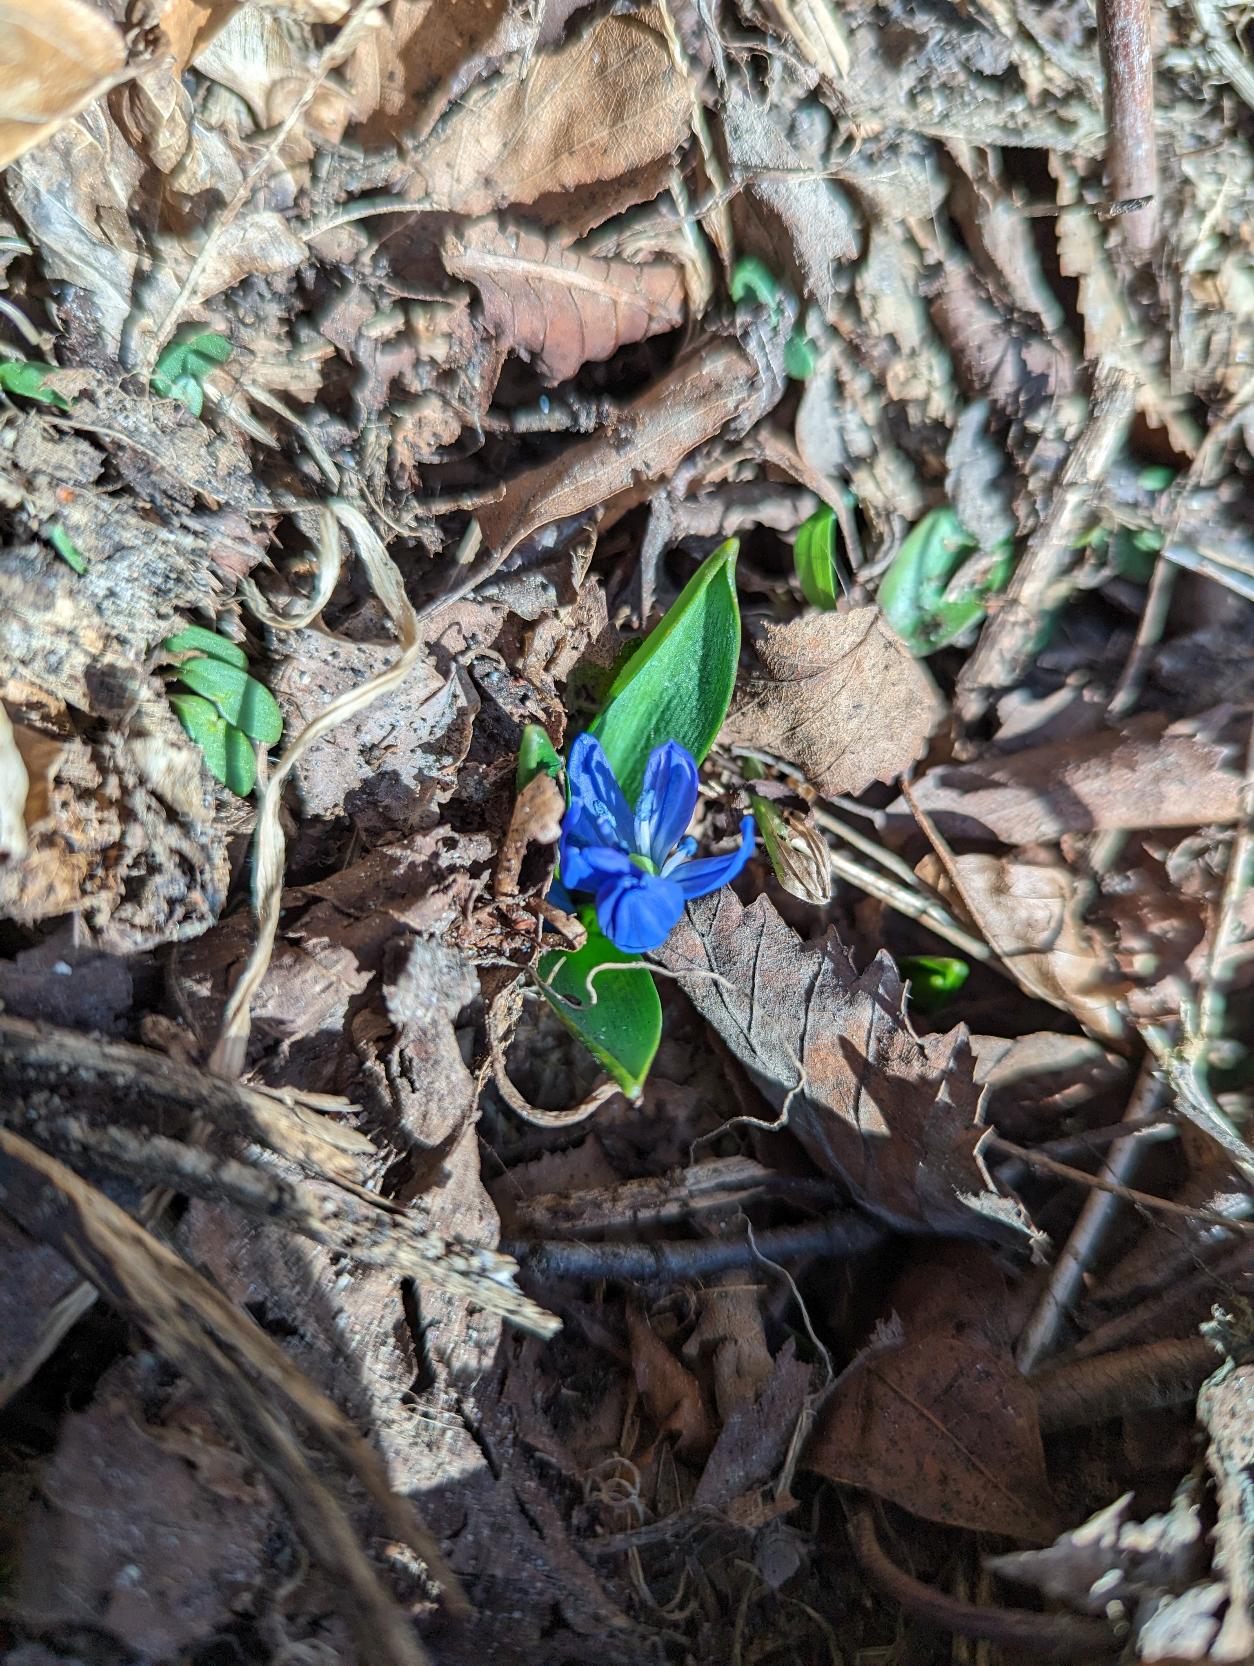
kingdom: Plantae
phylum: Tracheophyta
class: Liliopsida
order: Asparagales
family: Asparagaceae
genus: Scilla
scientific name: Scilla siberica
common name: Russisk skilla
